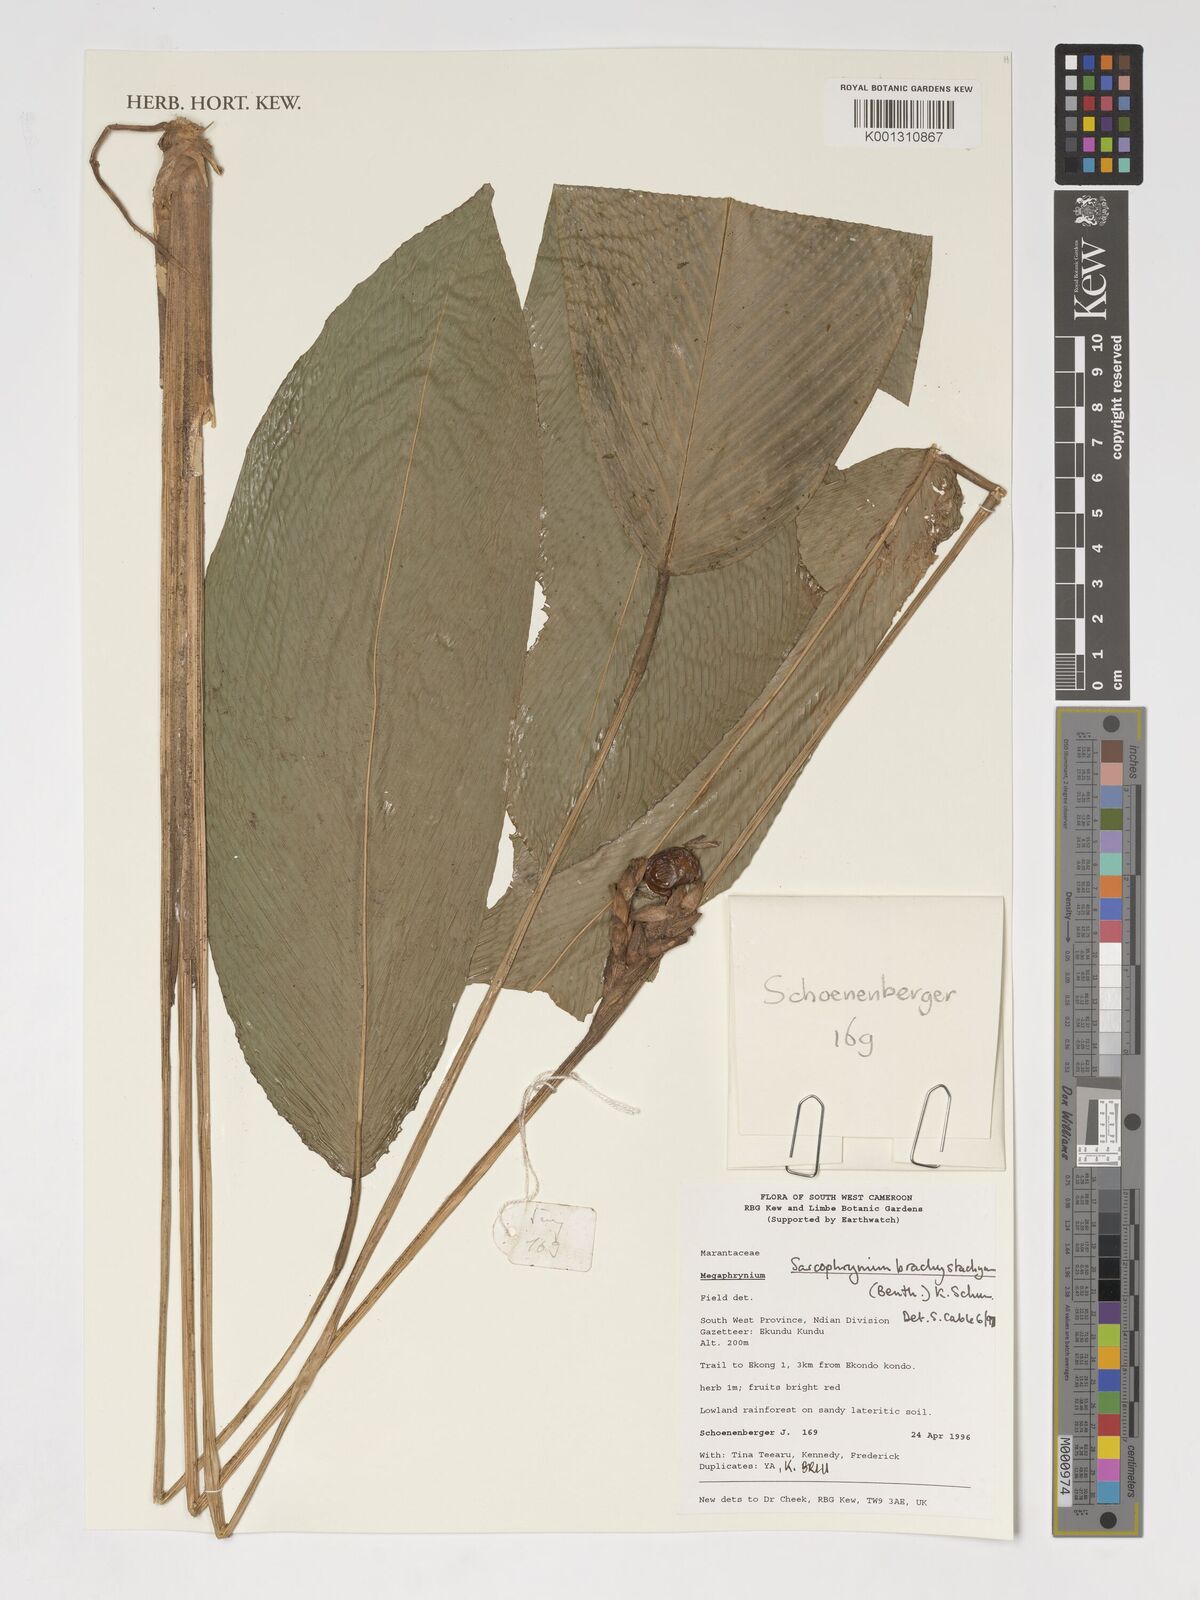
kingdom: Plantae
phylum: Tracheophyta
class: Liliopsida
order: Zingiberales
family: Marantaceae
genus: Sarcophrynium
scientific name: Sarcophrynium brachystachyum
